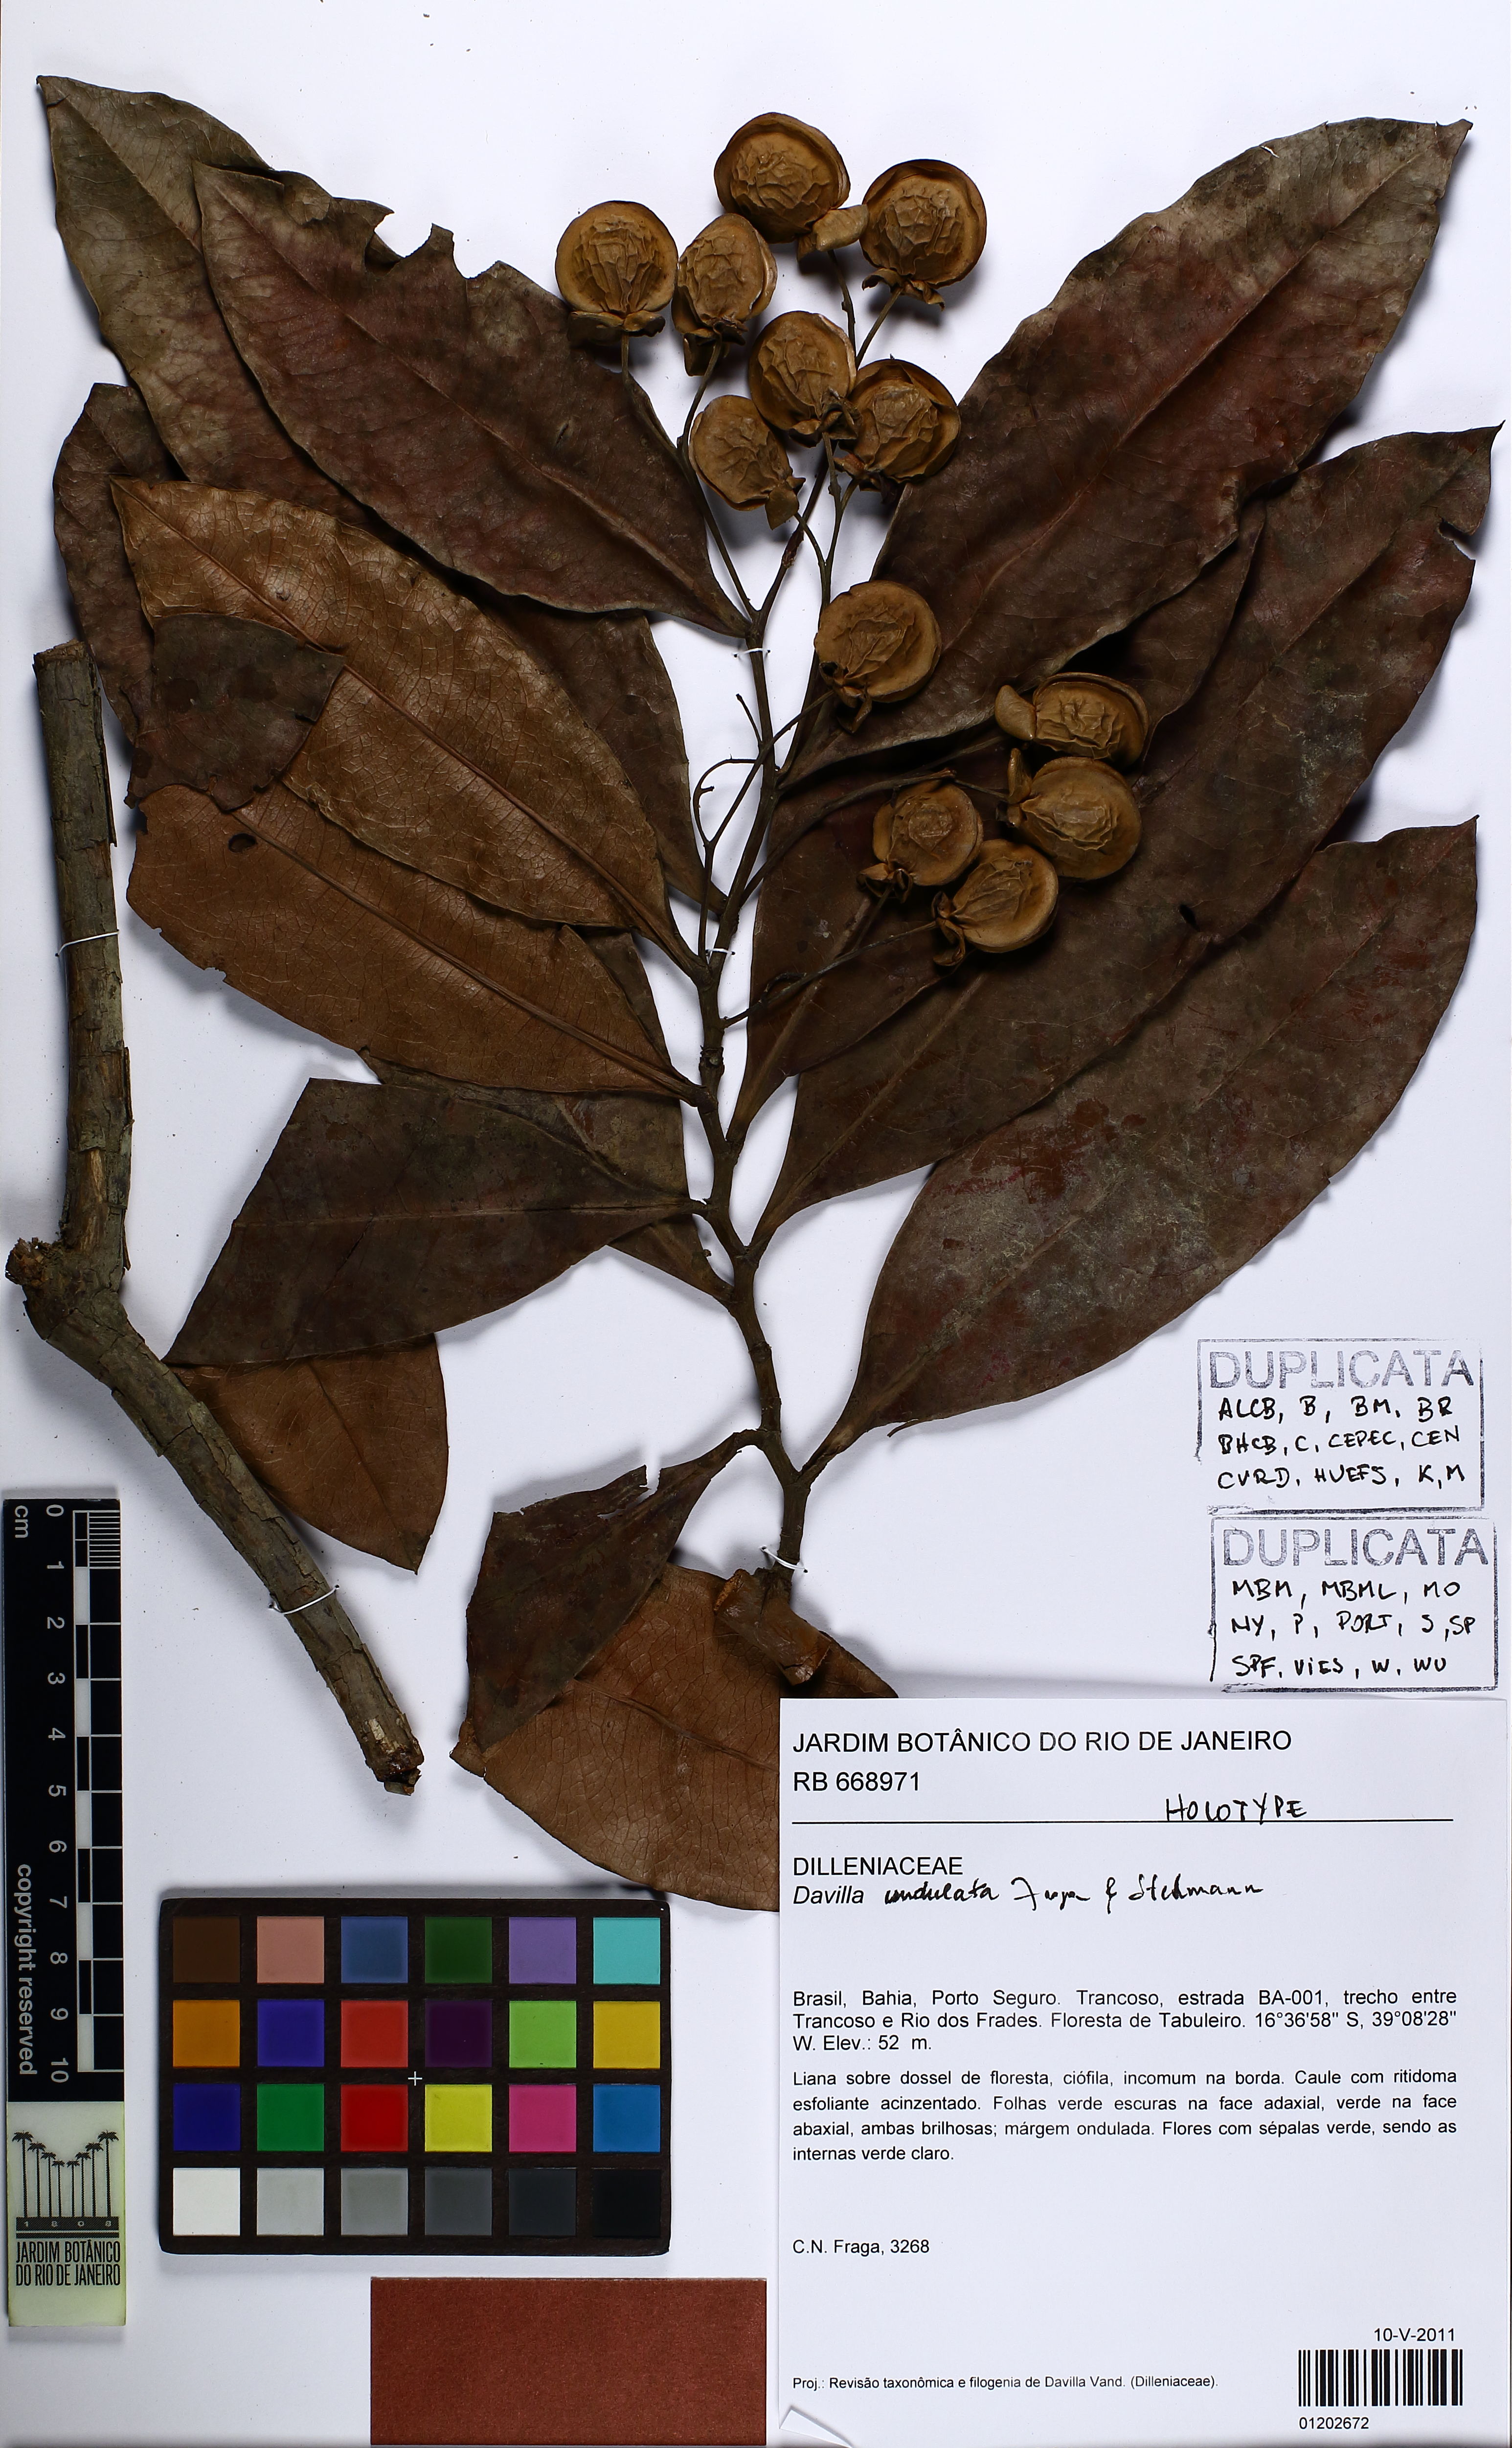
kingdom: Plantae
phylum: Tracheophyta
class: Magnoliopsida
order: Dilleniales
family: Dilleniaceae
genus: Davilla
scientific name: Davilla undulata
